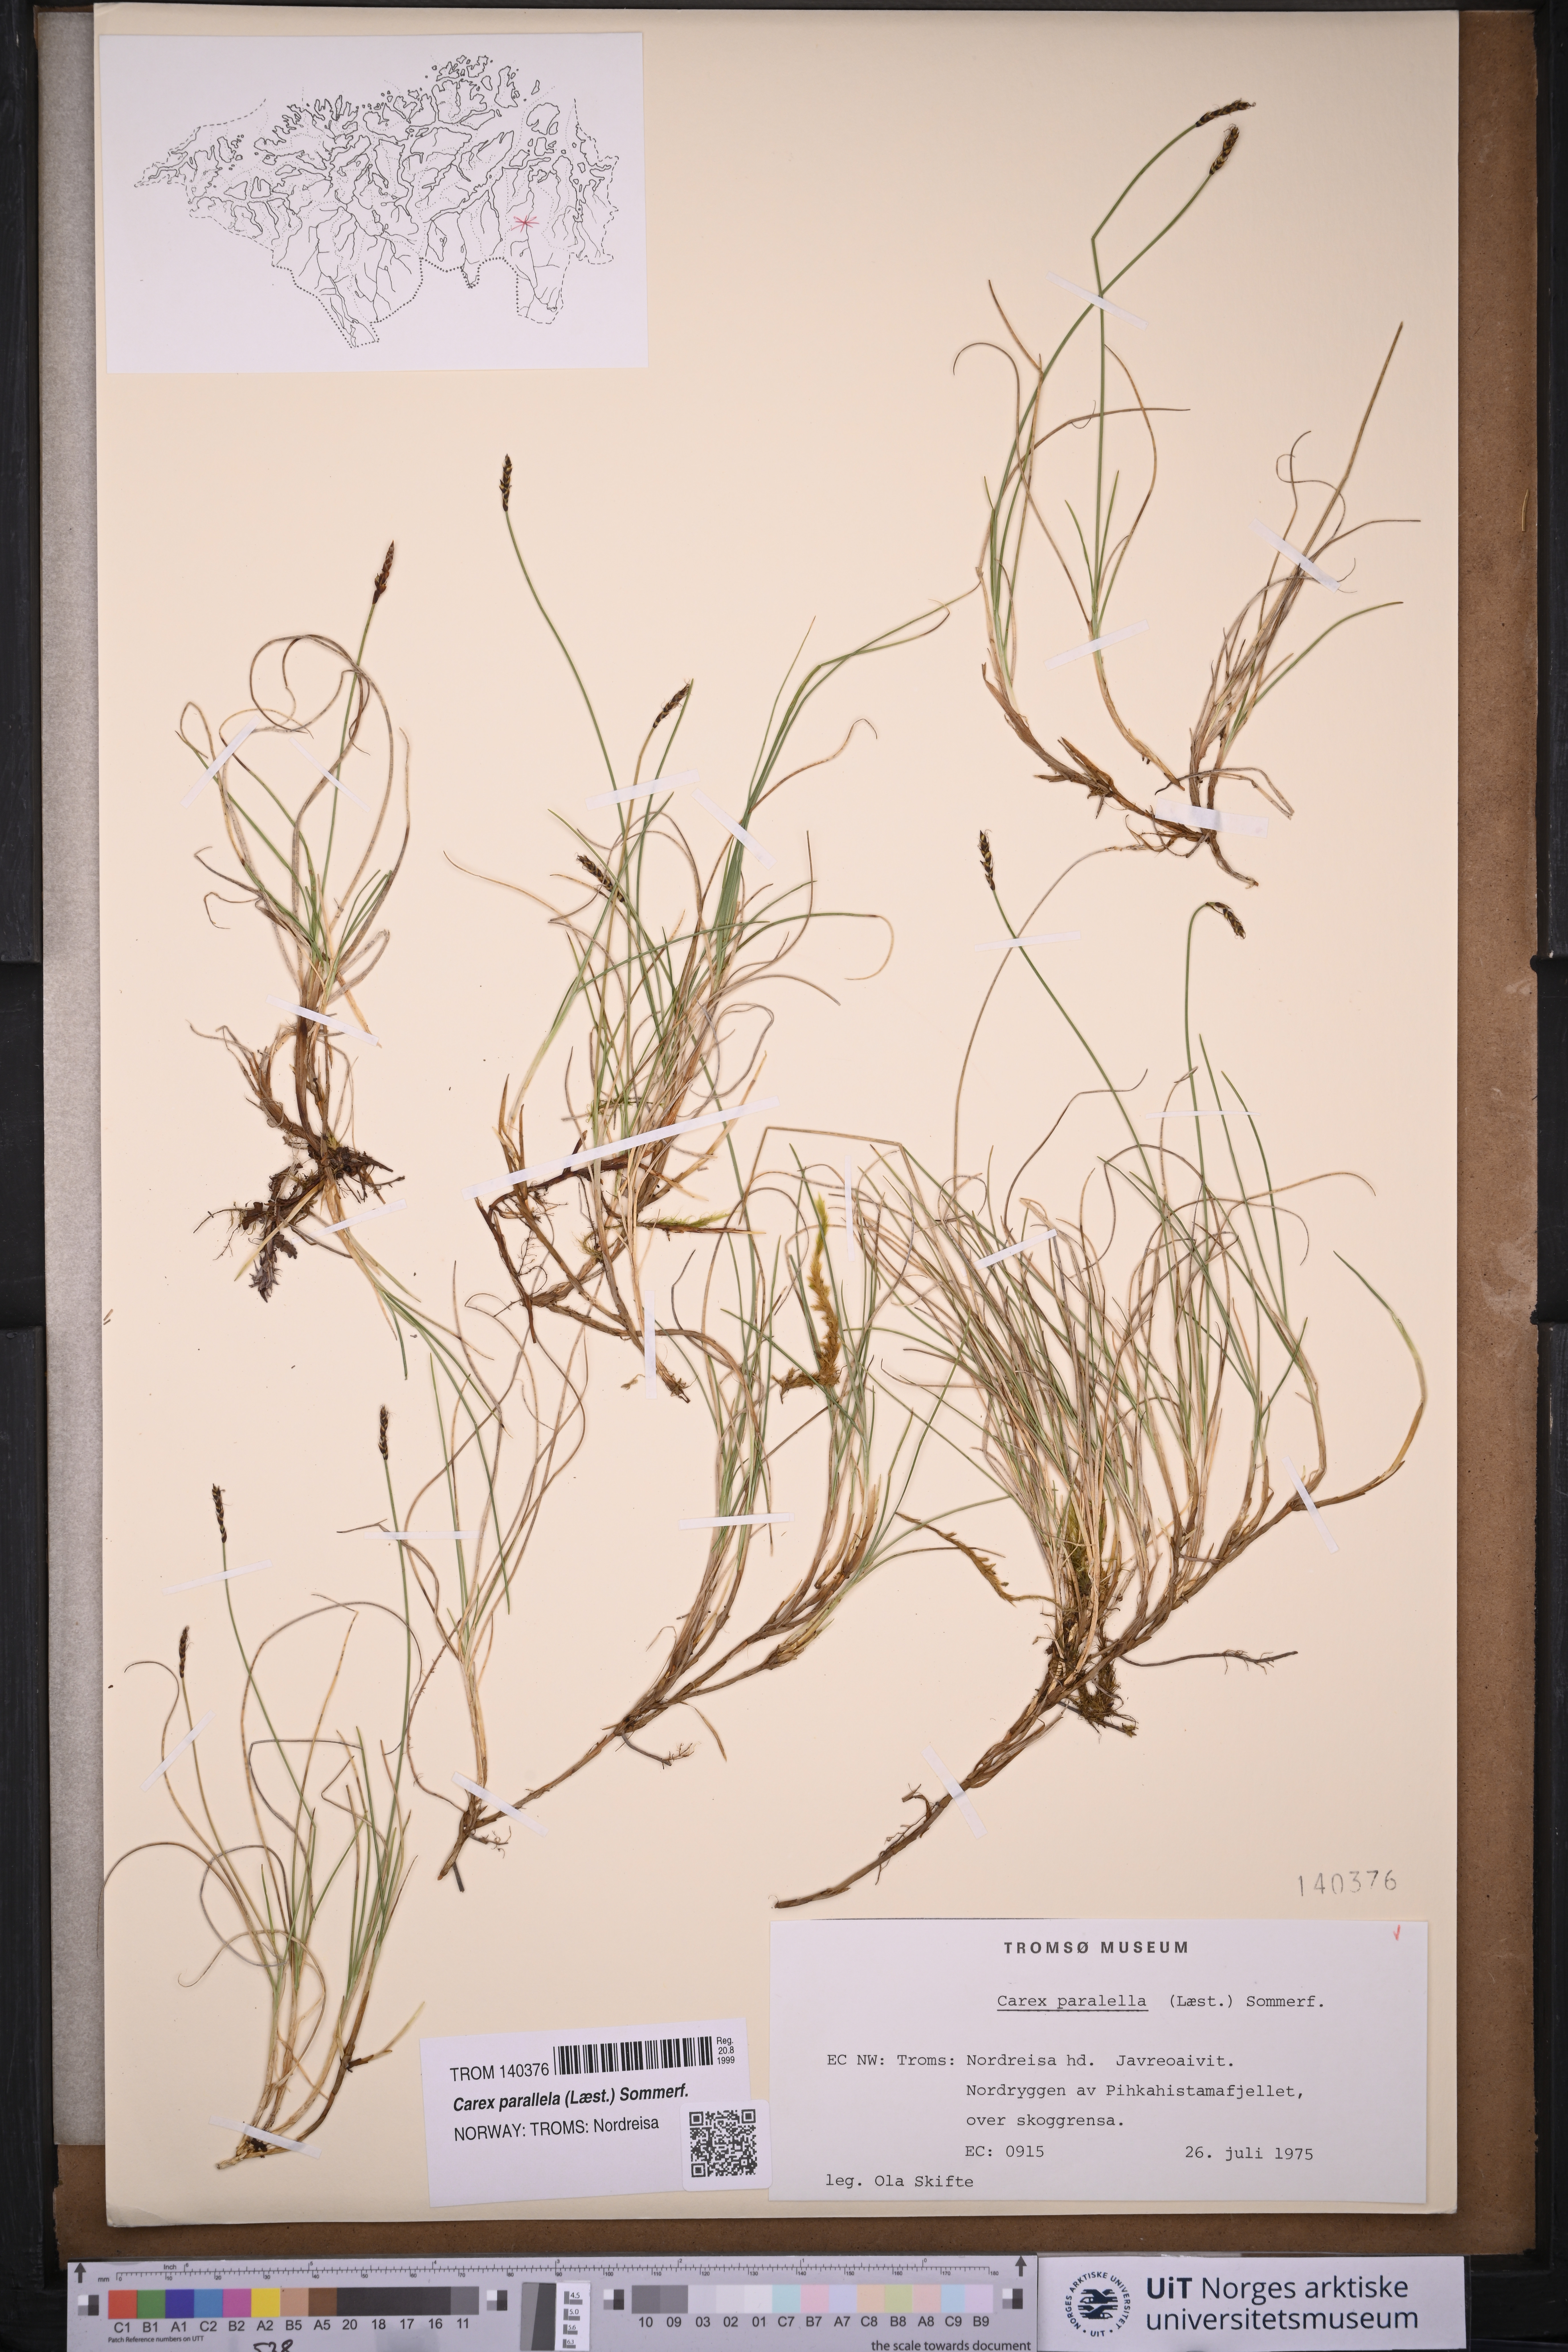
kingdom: Plantae
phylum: Tracheophyta
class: Liliopsida
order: Poales
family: Cyperaceae
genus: Carex
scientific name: Carex parallela
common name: Parallel sedge
